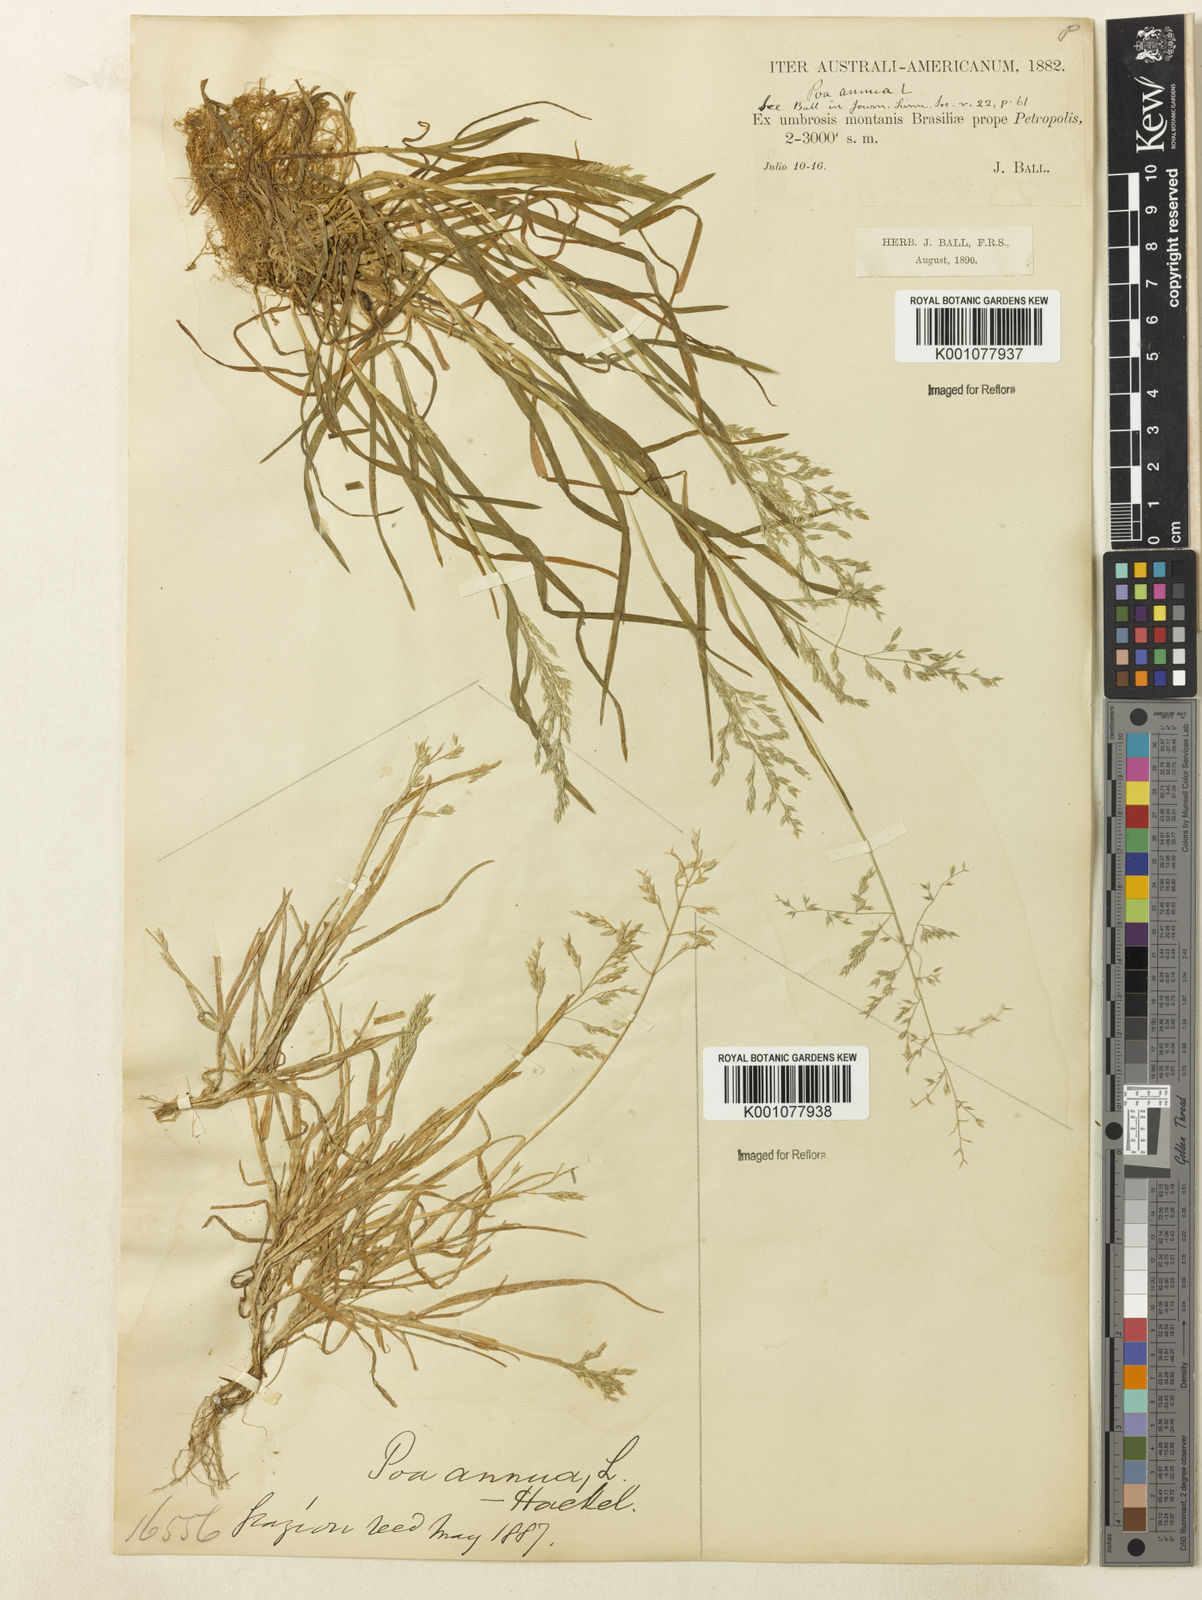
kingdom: Plantae
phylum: Tracheophyta
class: Liliopsida
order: Poales
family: Poaceae
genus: Poa
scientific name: Poa annua
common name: Annual bluegrass
